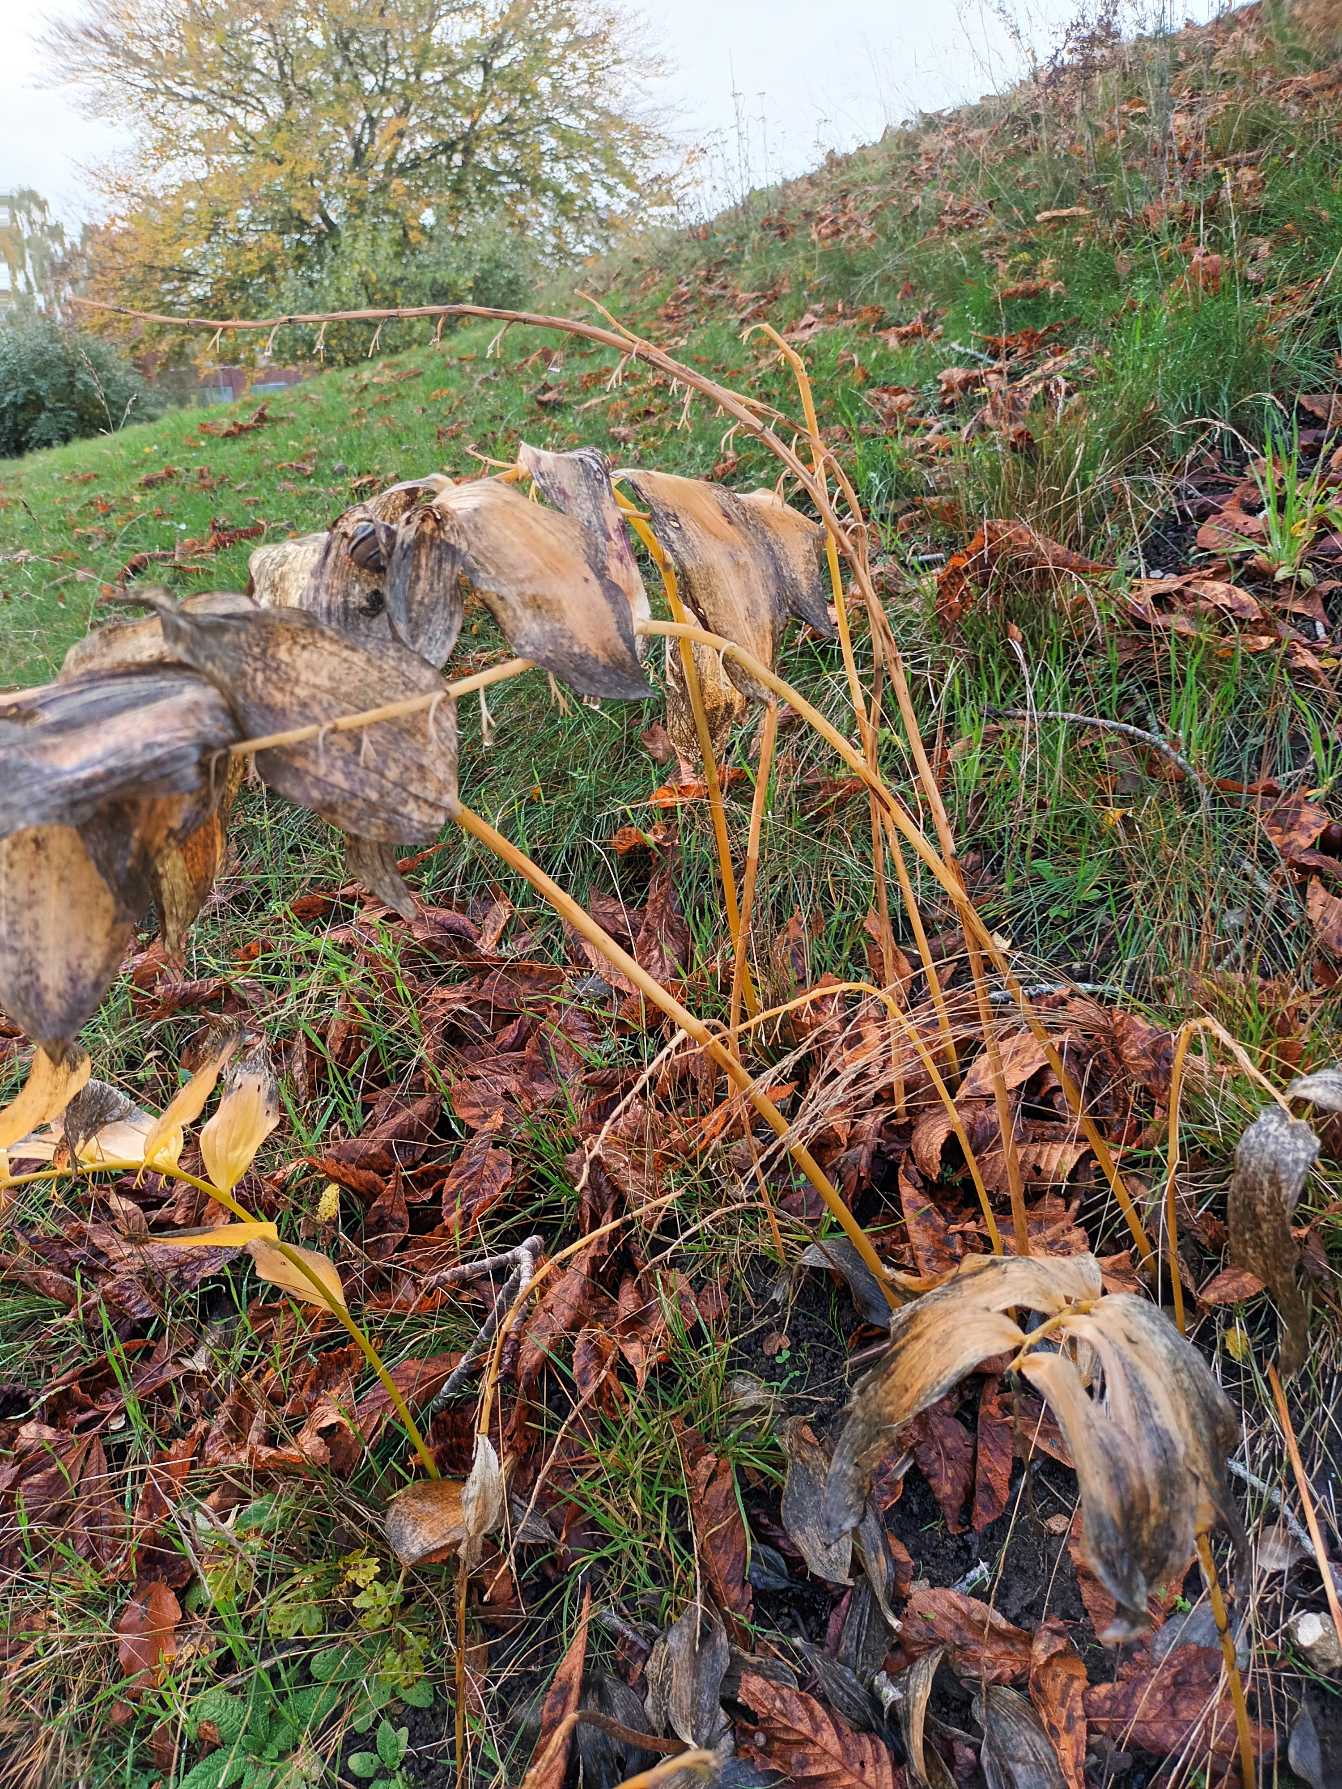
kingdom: Plantae
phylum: Tracheophyta
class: Liliopsida
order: Asparagales
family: Asparagaceae
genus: Polygonatum
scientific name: Polygonatum
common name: Hybrid-konval
